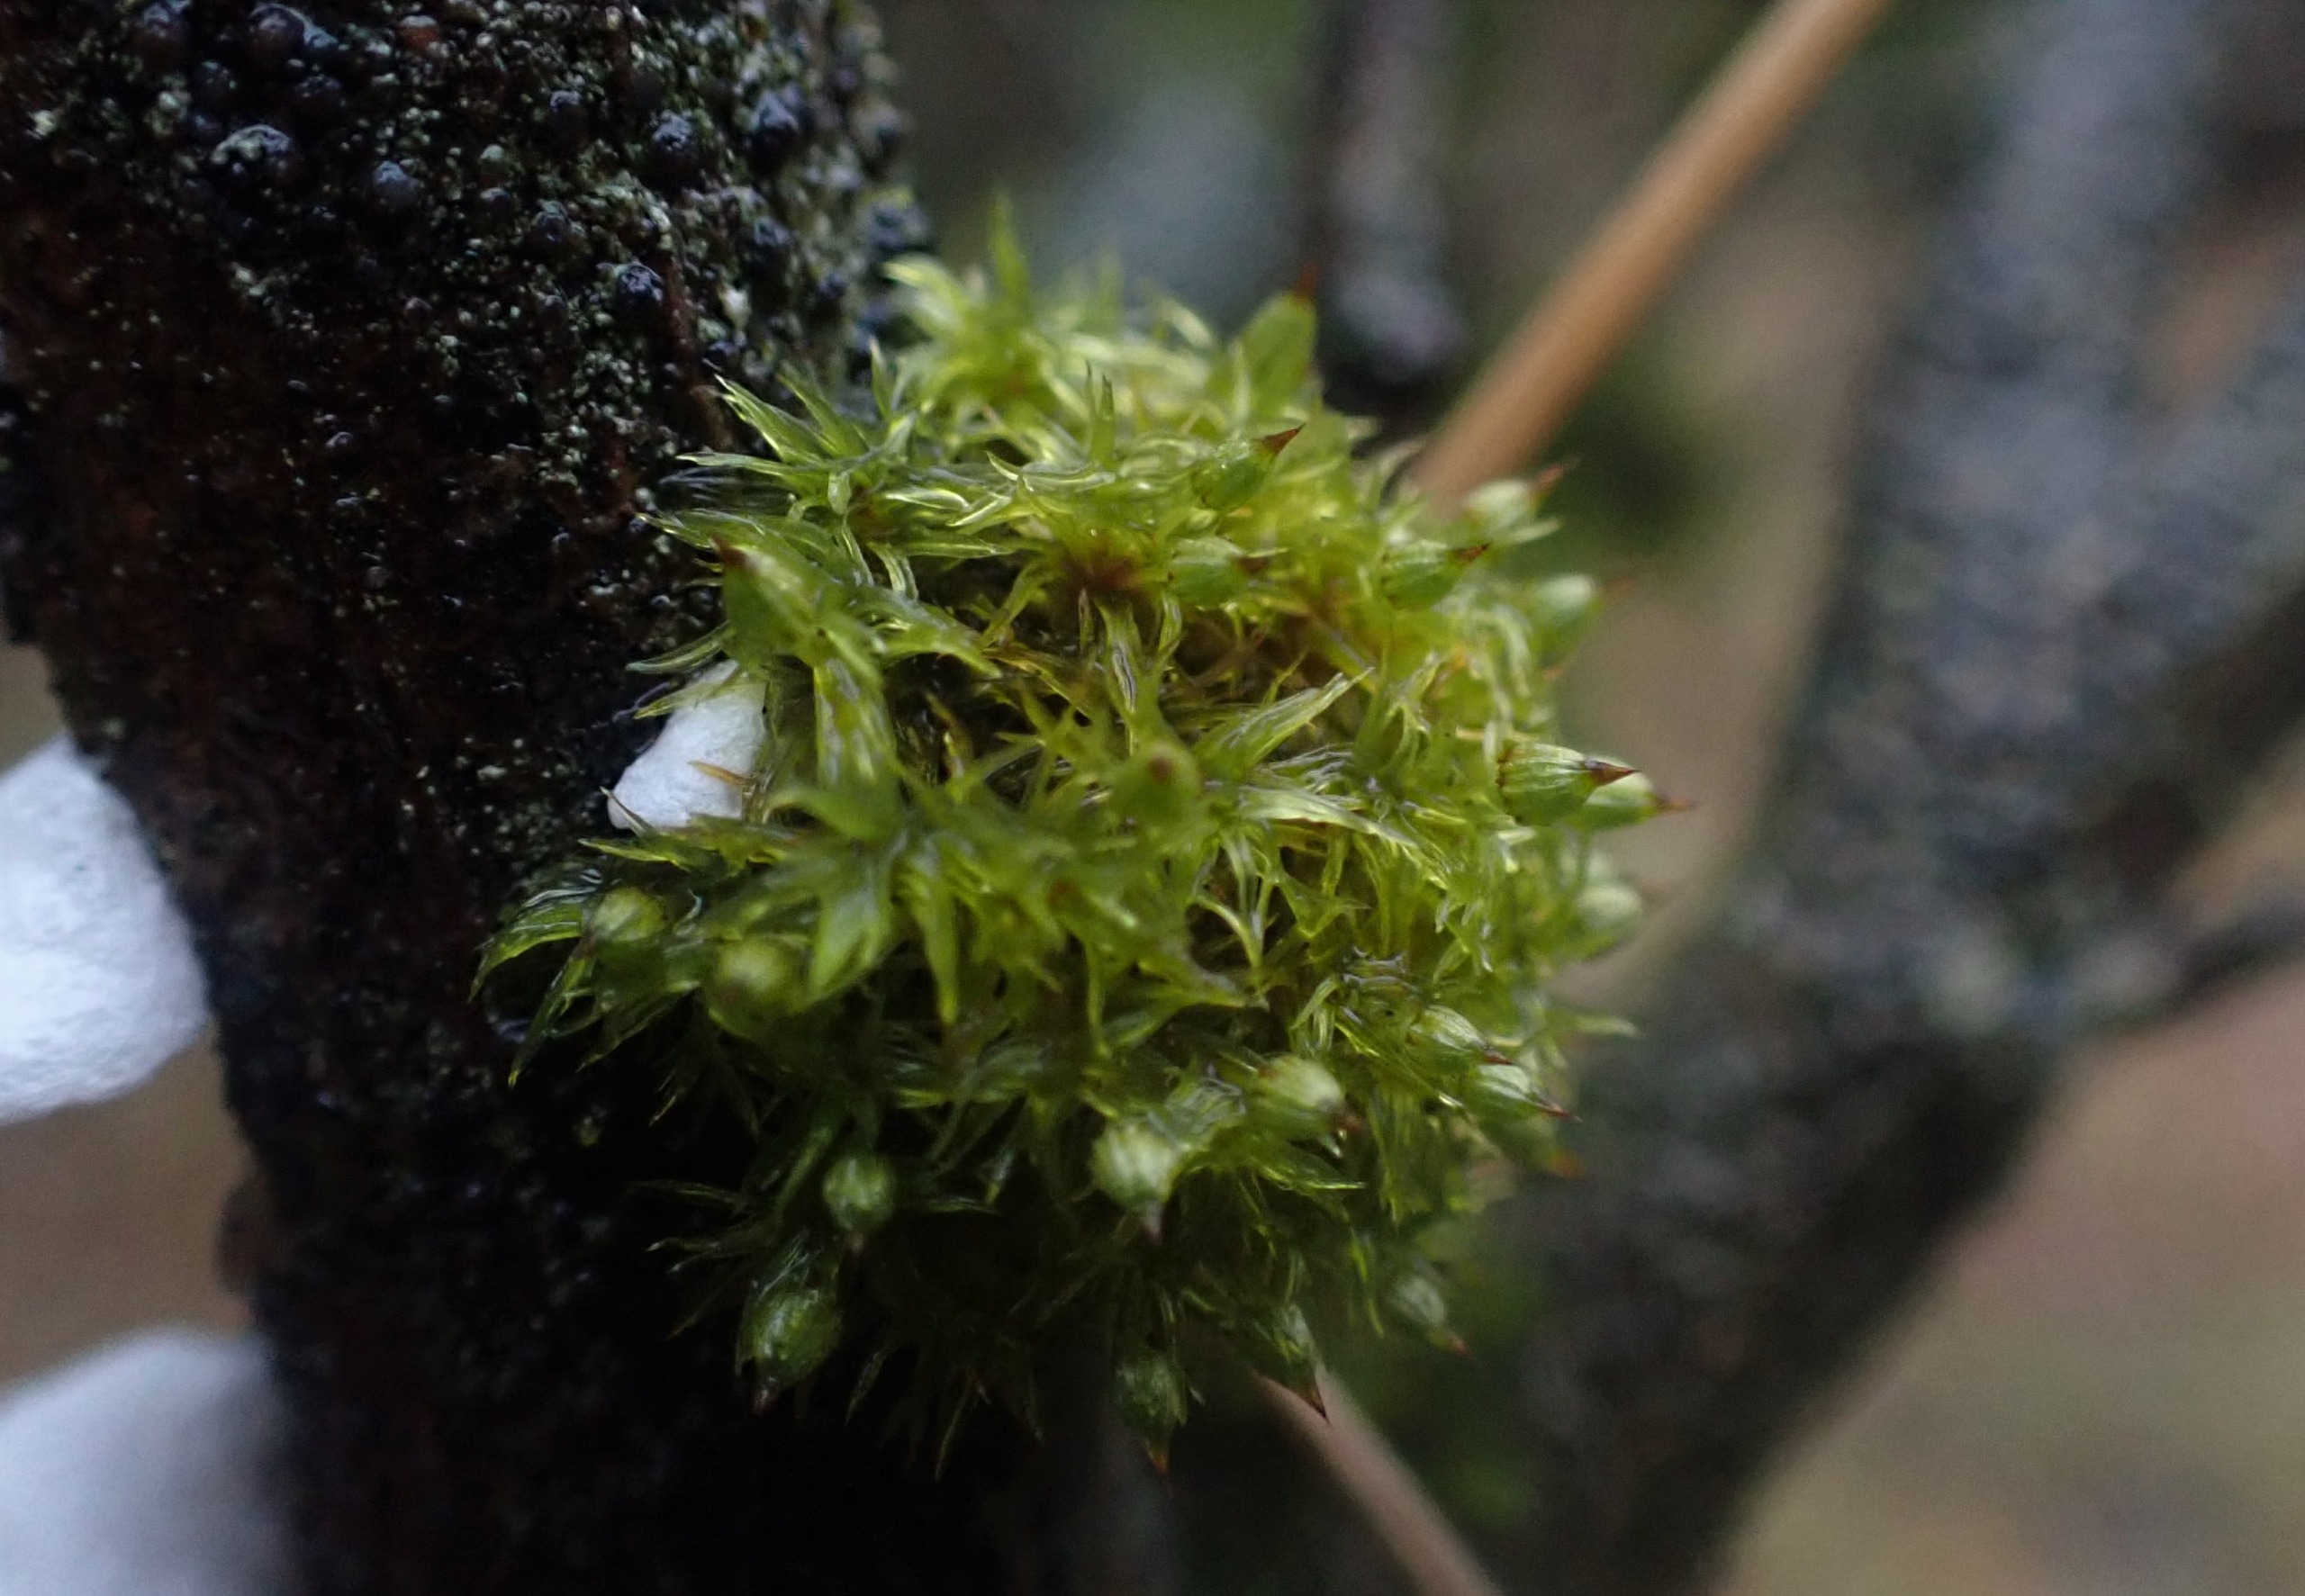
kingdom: Plantae
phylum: Bryophyta
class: Bryopsida
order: Orthotrichales
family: Orthotrichaceae
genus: Orthotrichum
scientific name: Orthotrichum pulchellum
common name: Smuk furehætte
